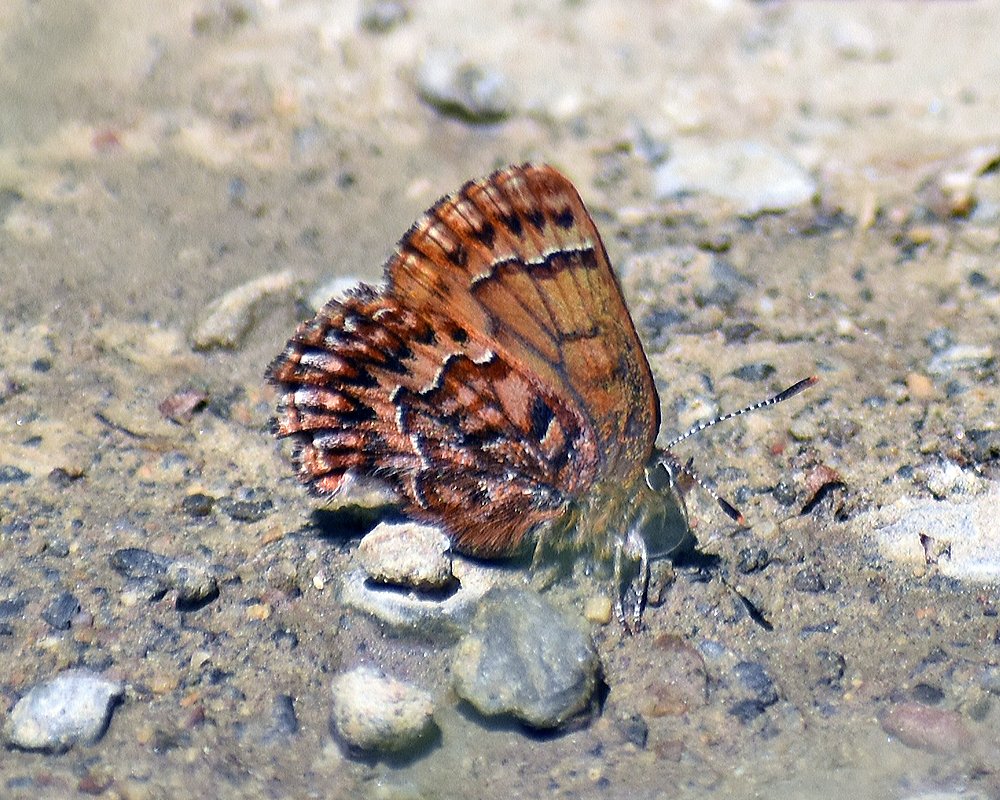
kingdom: Animalia
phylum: Arthropoda
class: Insecta
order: Lepidoptera
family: Lycaenidae
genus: Incisalia
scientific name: Incisalia eryphon
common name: Western Pine Elfin
